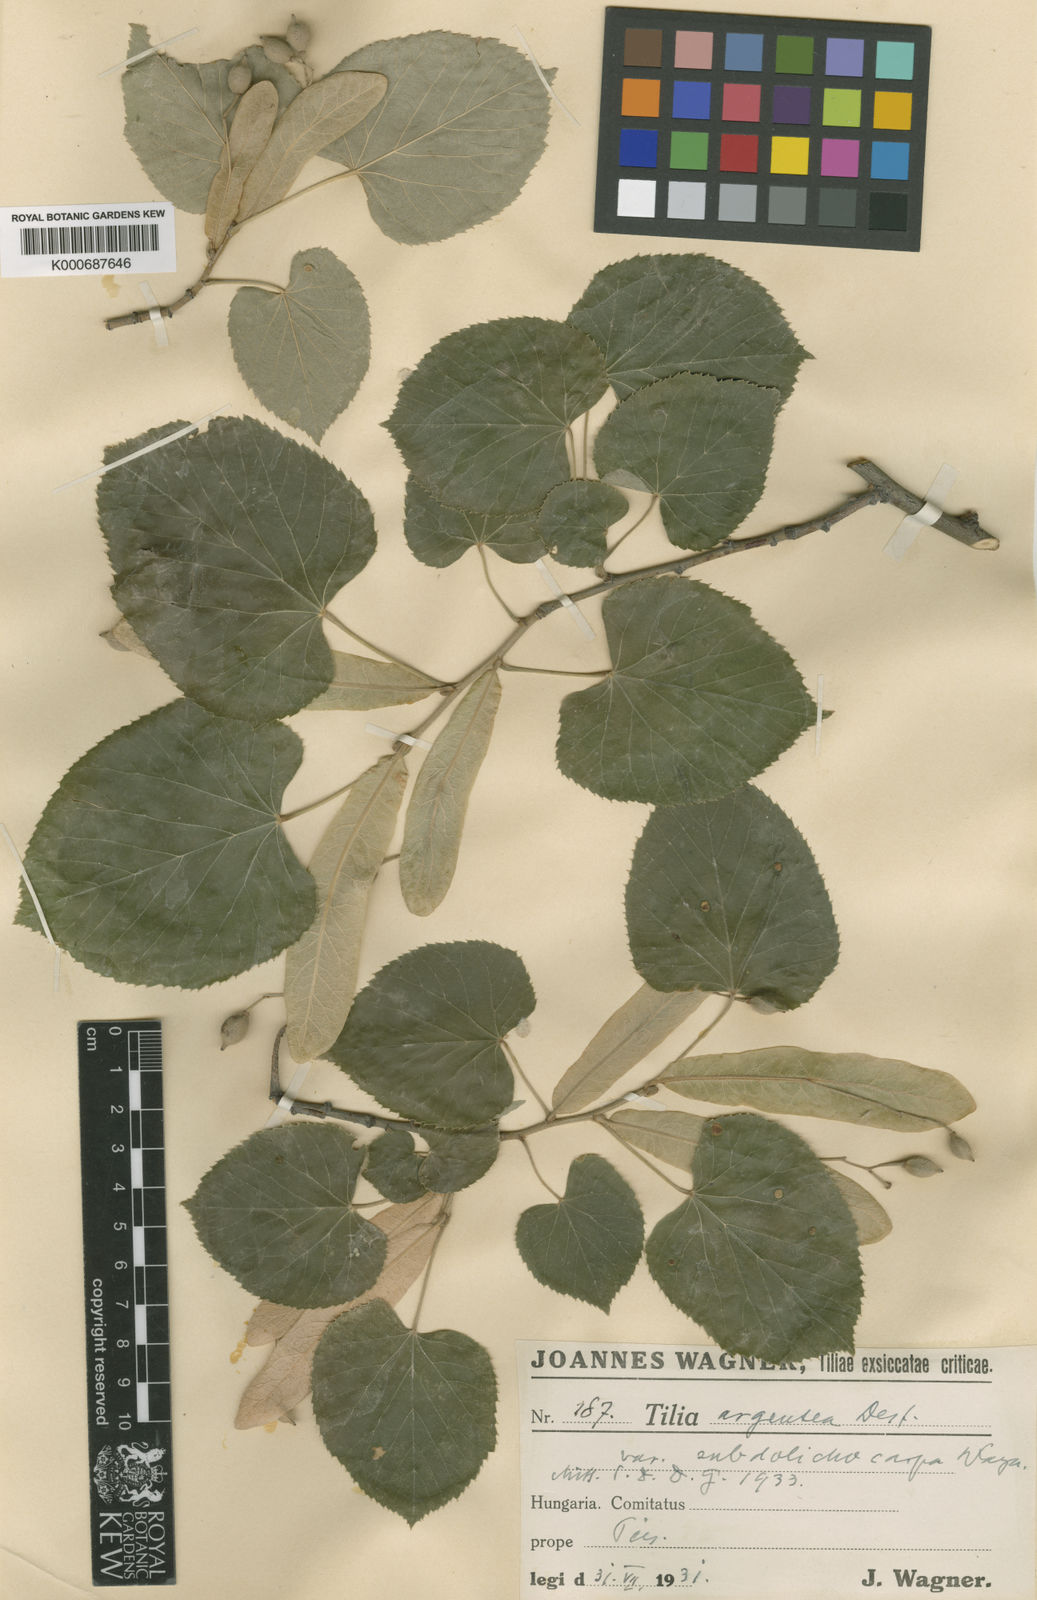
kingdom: Plantae
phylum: Tracheophyta
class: Magnoliopsida
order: Malvales
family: Malvaceae
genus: Tilia
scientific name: Tilia tomentosa
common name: Silver lime
